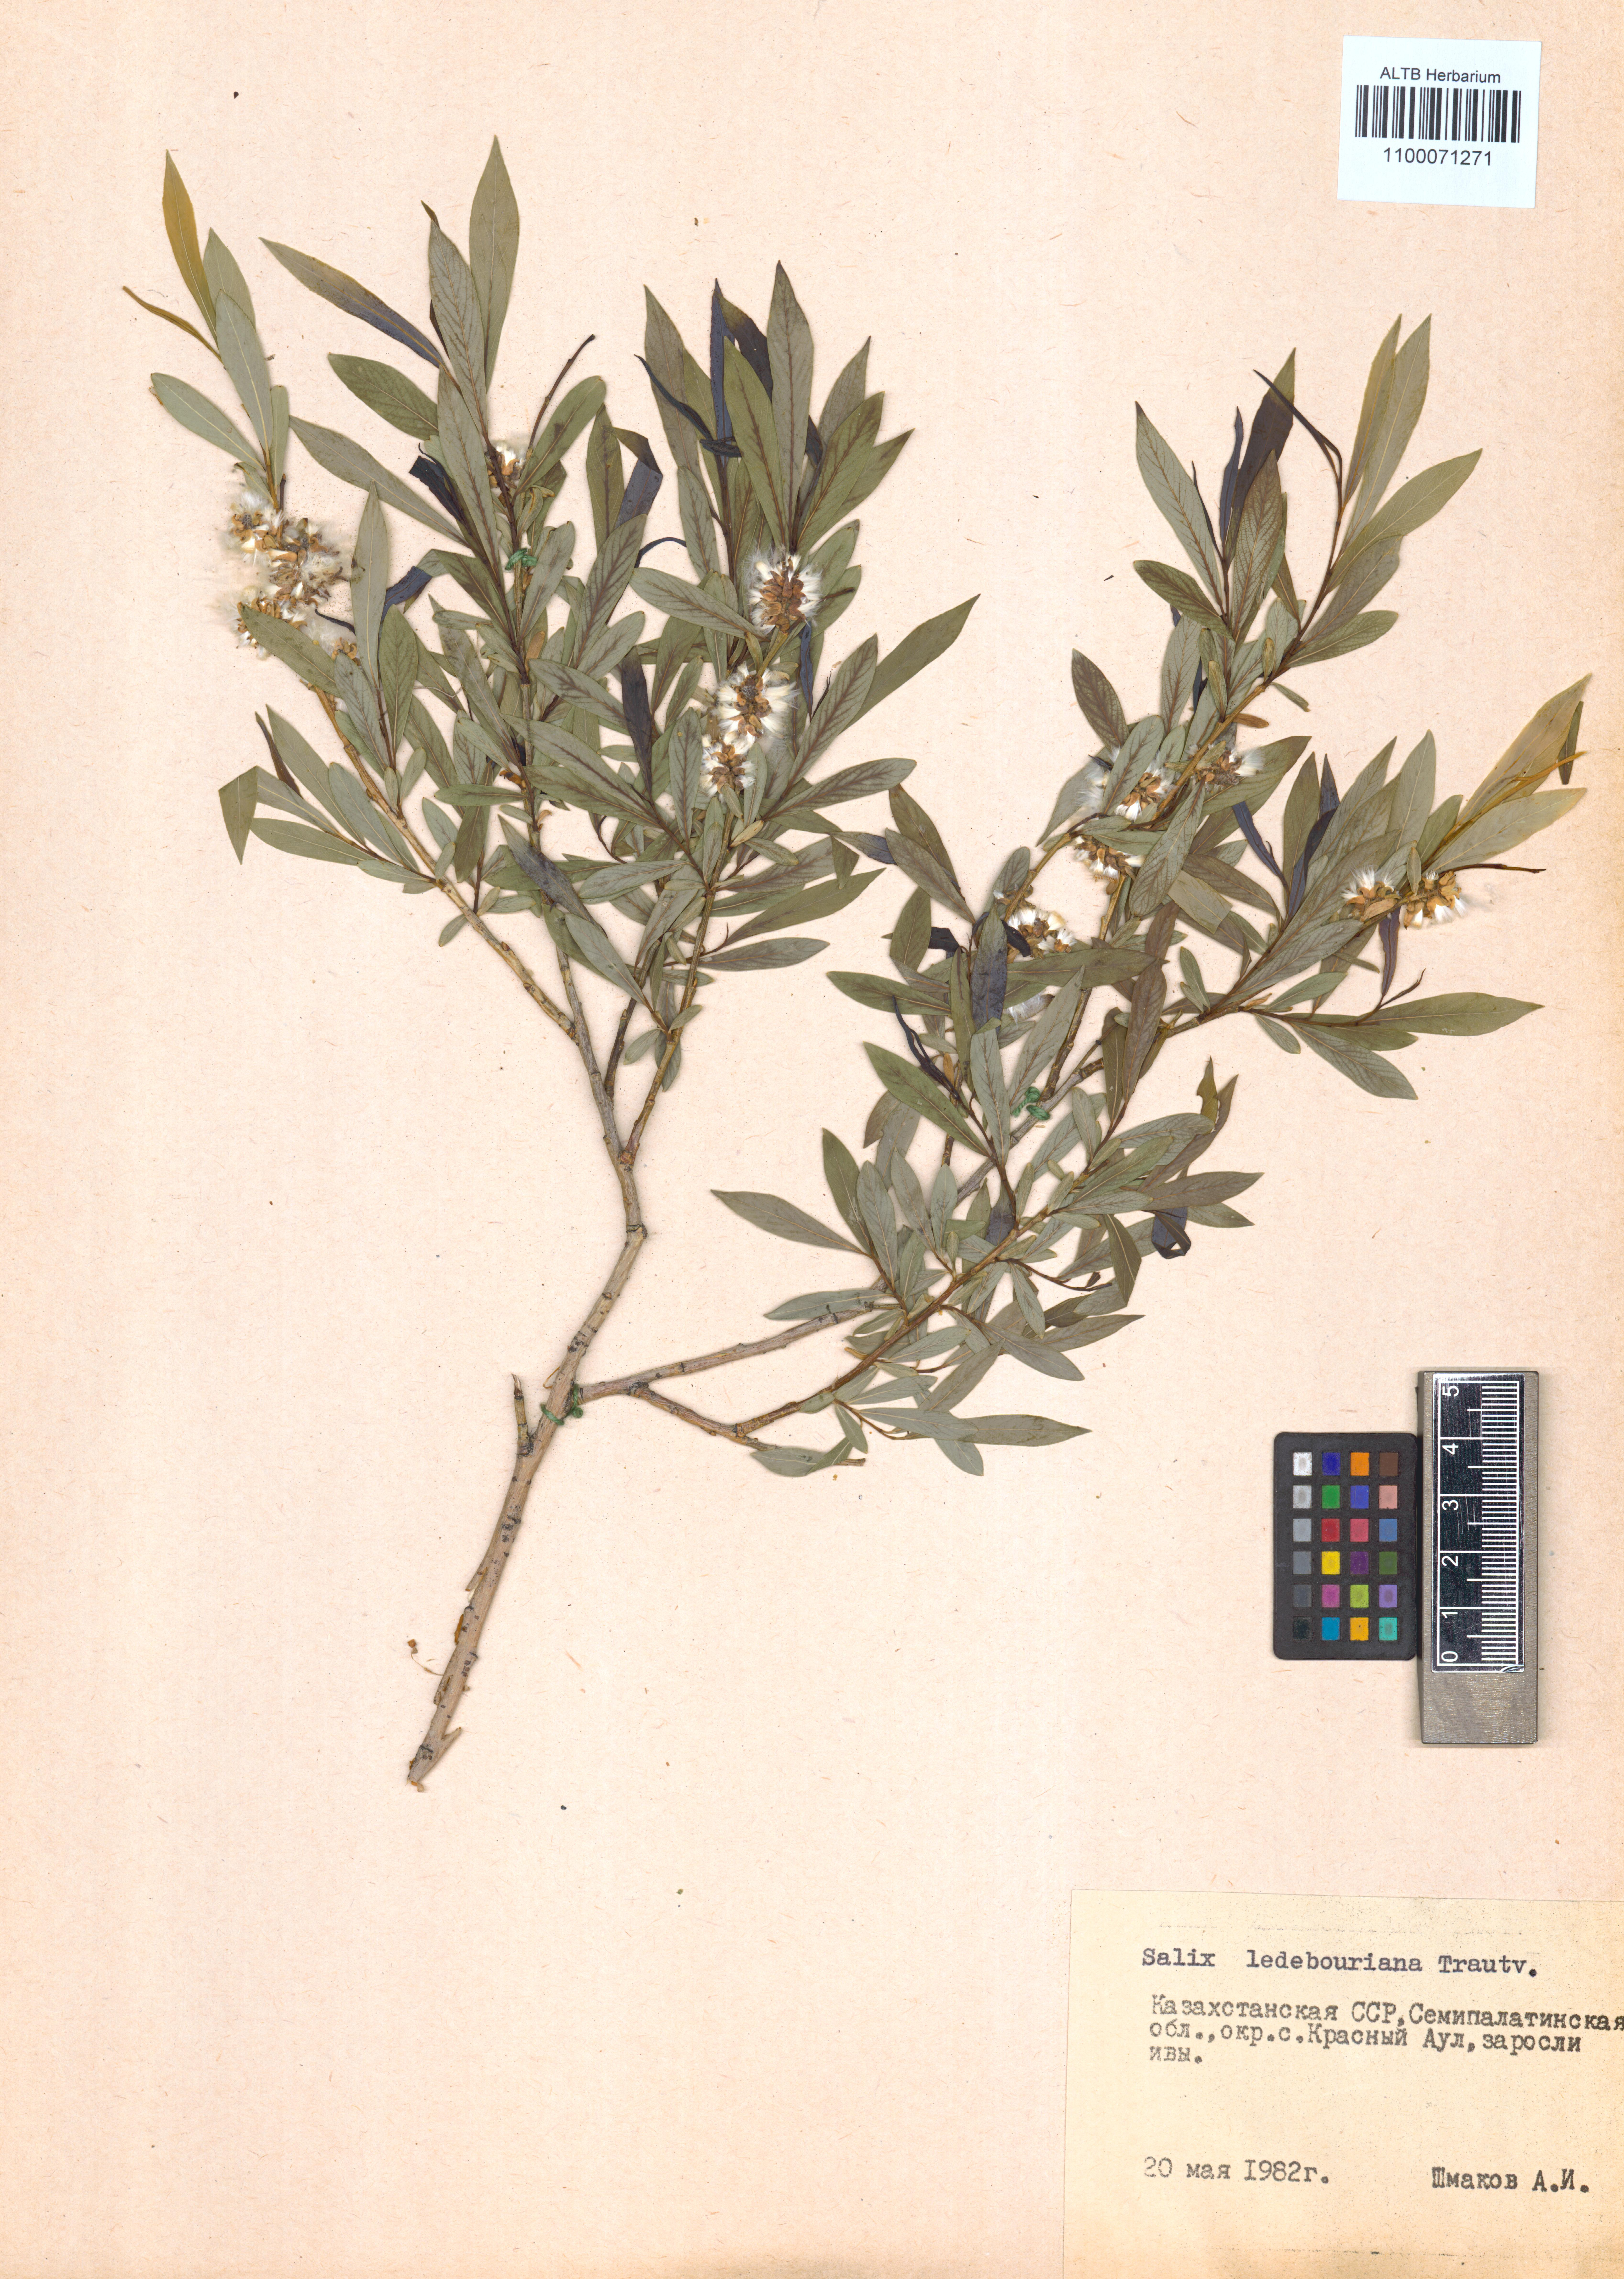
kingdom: Plantae
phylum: Tracheophyta
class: Magnoliopsida
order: Malpighiales
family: Salicaceae
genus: Salix
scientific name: Salix ledebouriana
